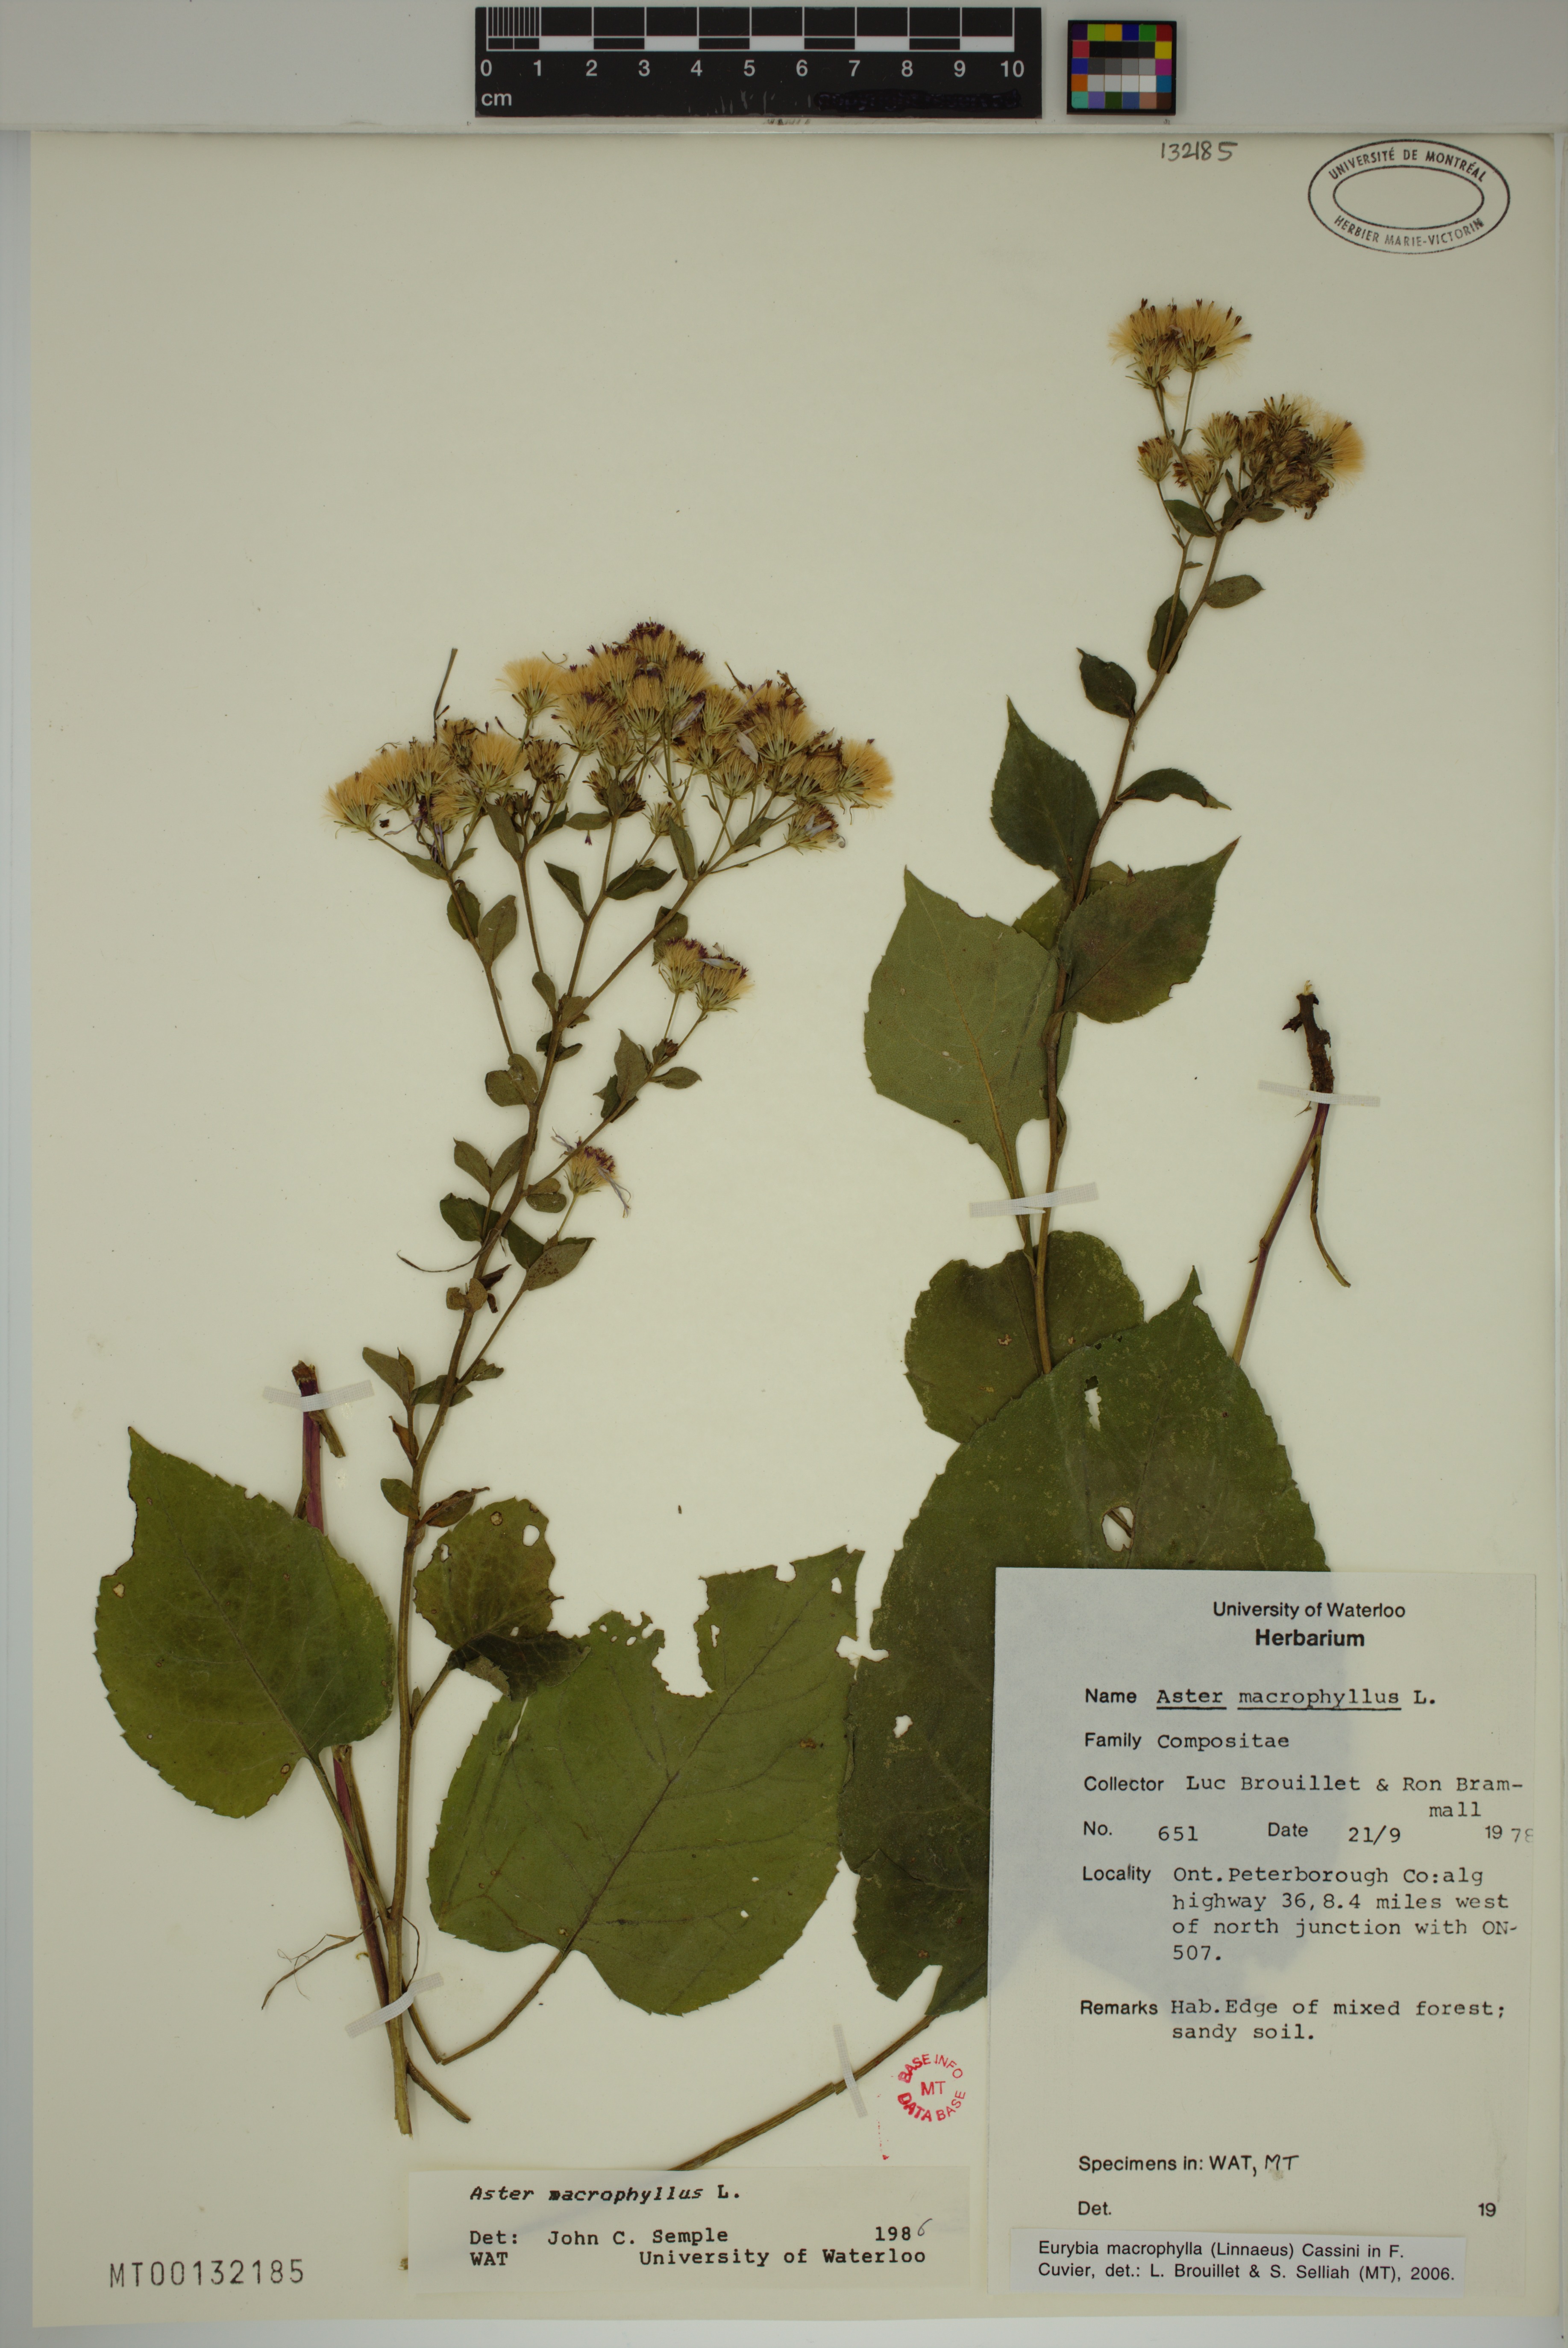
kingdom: Plantae
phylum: Tracheophyta
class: Magnoliopsida
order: Asterales
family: Asteraceae
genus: Eurybia
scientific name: Eurybia macrophylla
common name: Big-leaved aster
